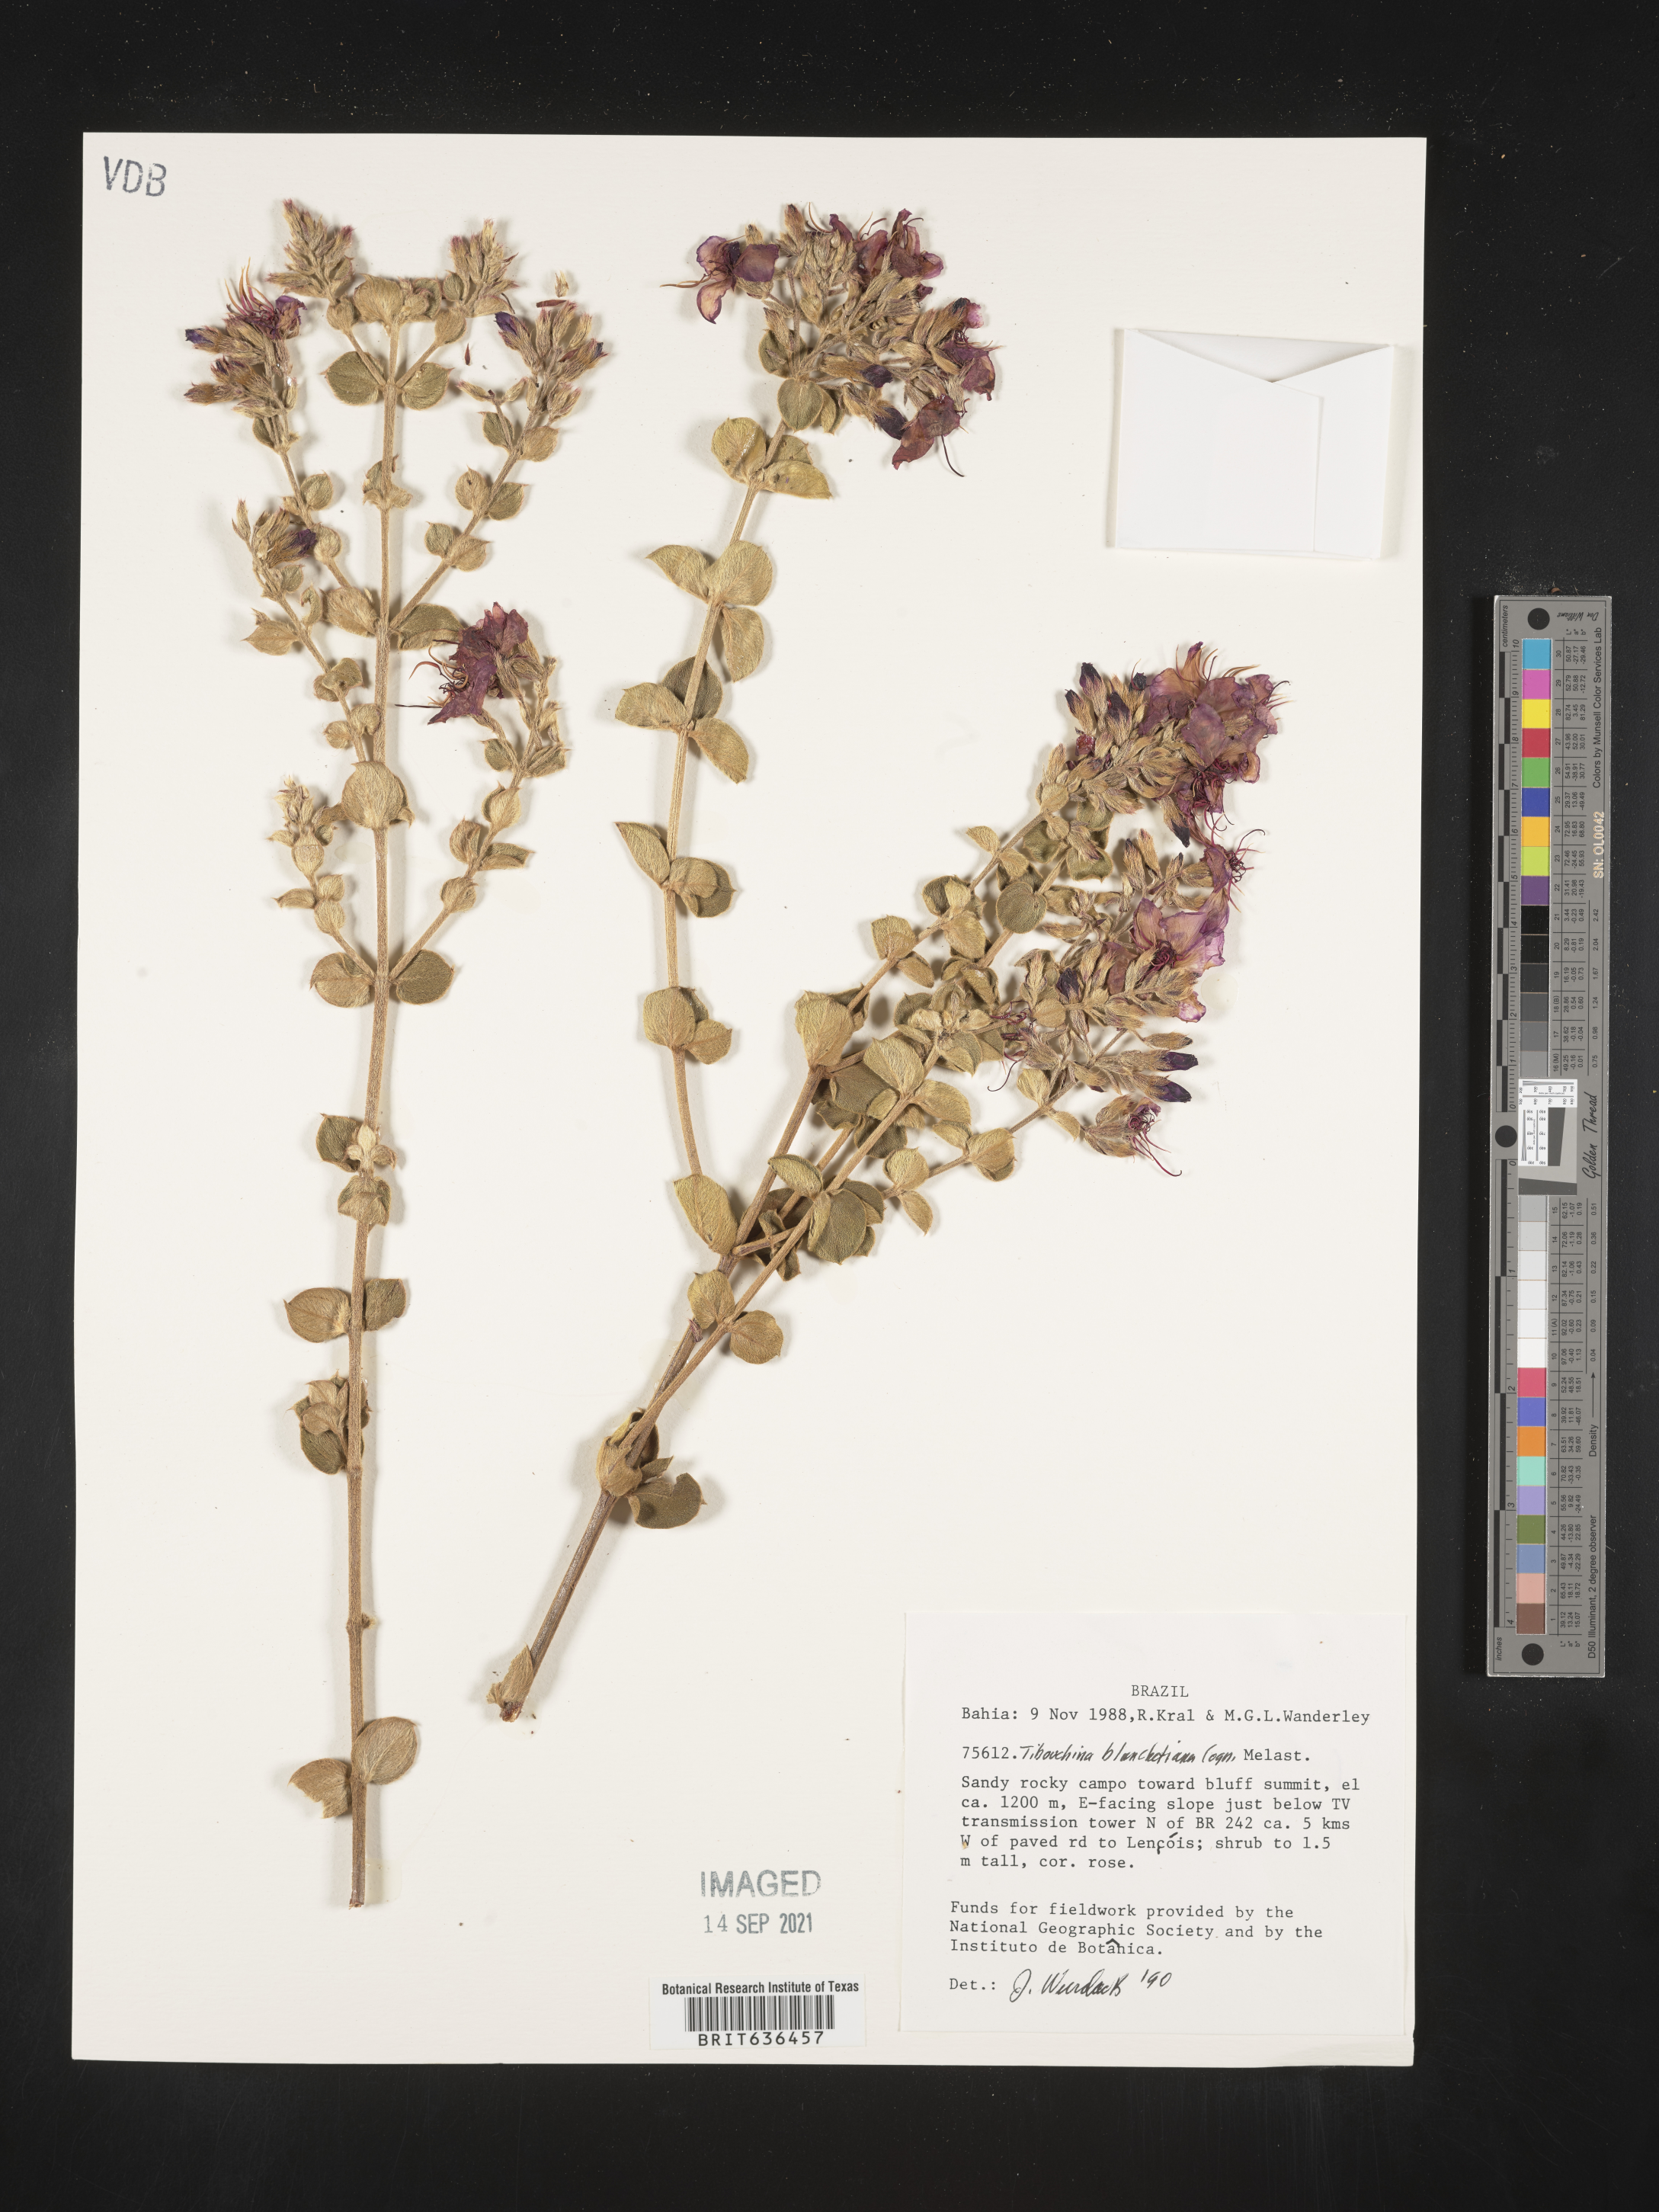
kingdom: Plantae
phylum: Tracheophyta
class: Magnoliopsida
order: Myrtales
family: Melastomataceae
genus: Tibouchina
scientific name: Tibouchina
